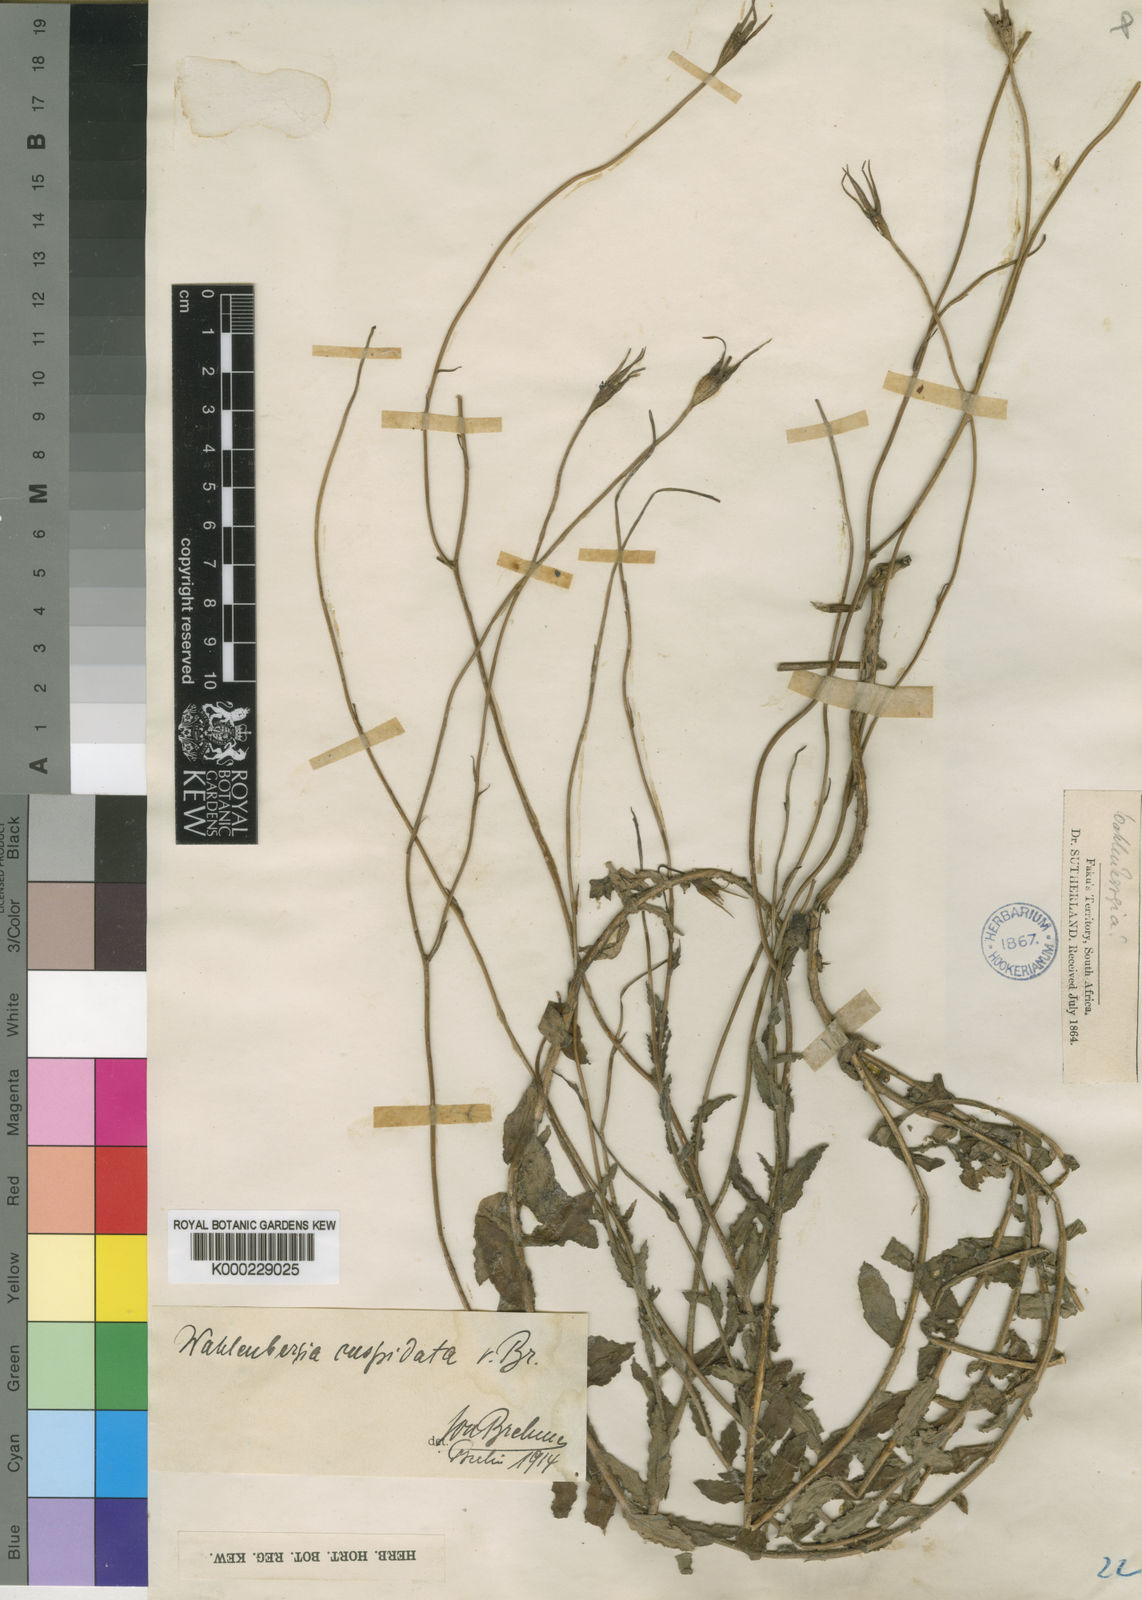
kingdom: Plantae
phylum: Tracheophyta
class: Magnoliopsida
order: Asterales
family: Campanulaceae
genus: Wahlenbergia
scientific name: Wahlenbergia cuspidata
